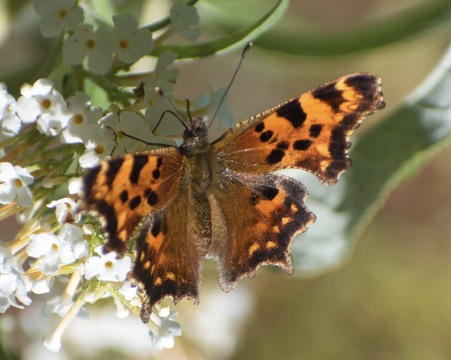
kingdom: Animalia
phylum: Arthropoda
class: Insecta
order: Lepidoptera
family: Nymphalidae
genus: Polygonia
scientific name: Polygonia faunus
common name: Green Comma
